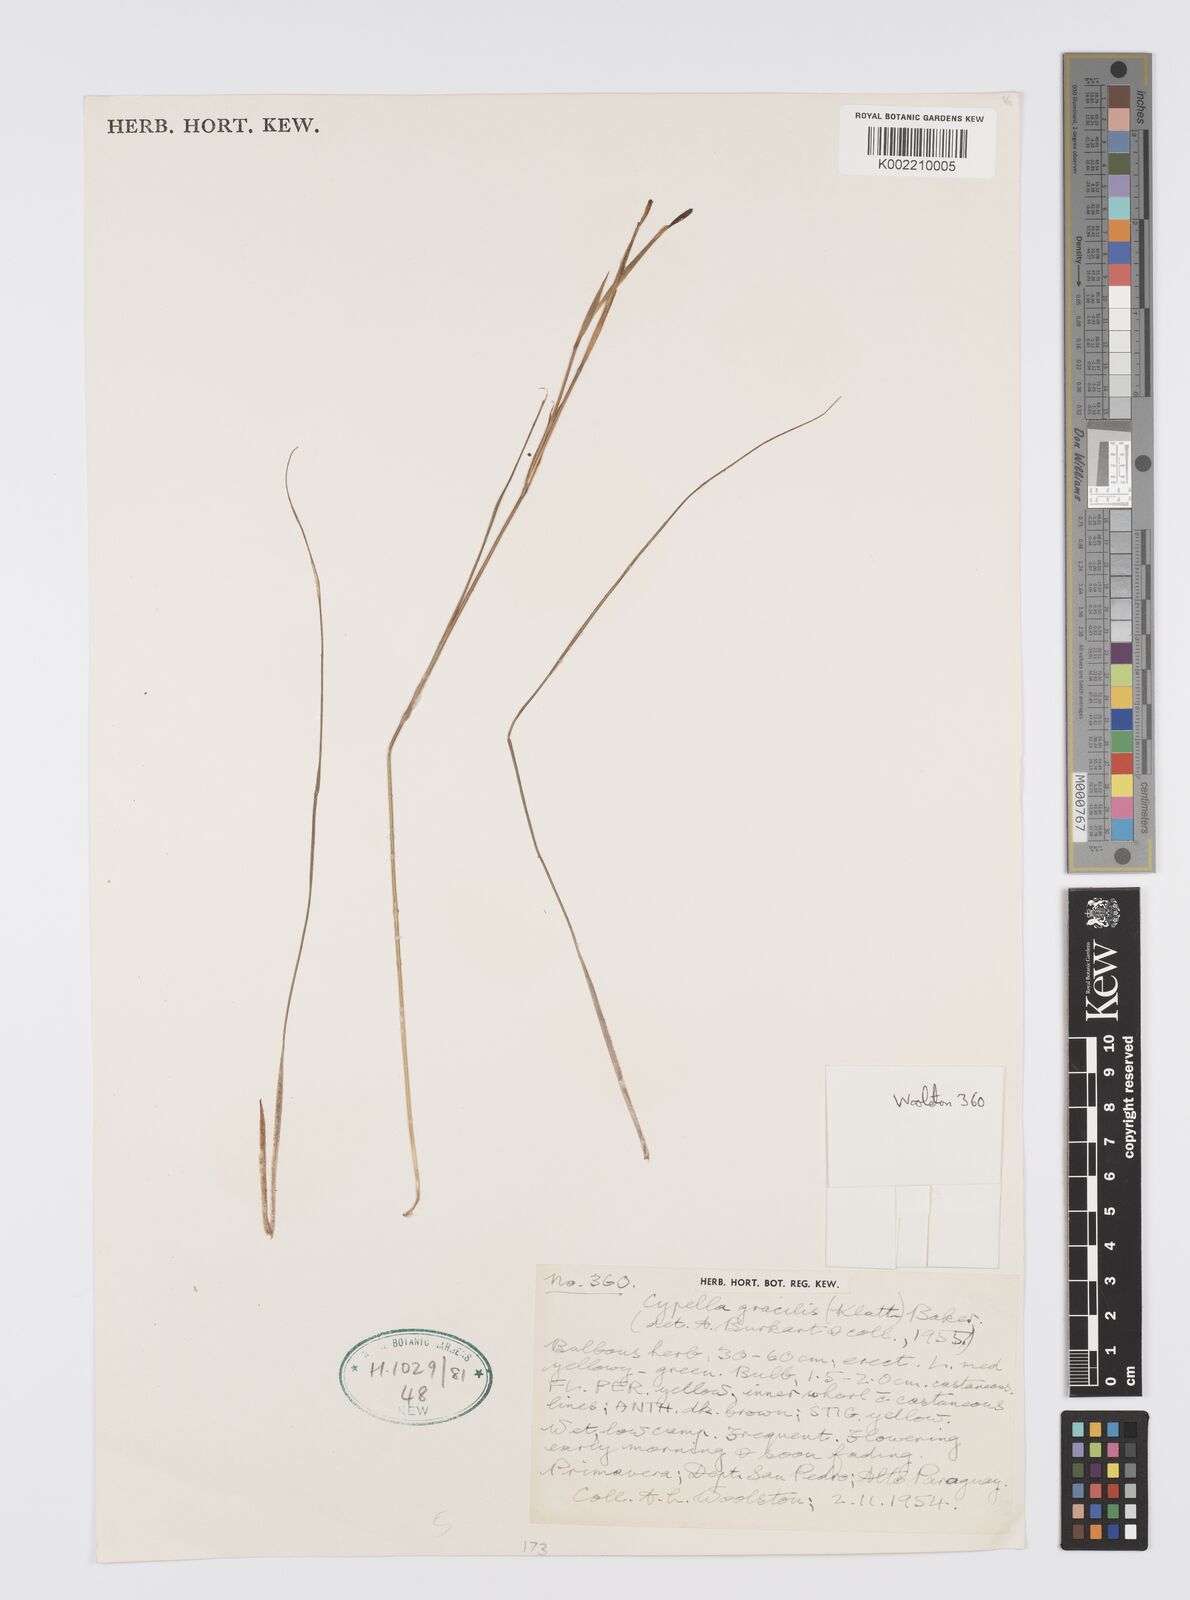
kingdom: Plantae
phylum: Tracheophyta
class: Liliopsida
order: Asparagales
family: Iridaceae
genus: Trimezia
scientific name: Trimezia gracilis
